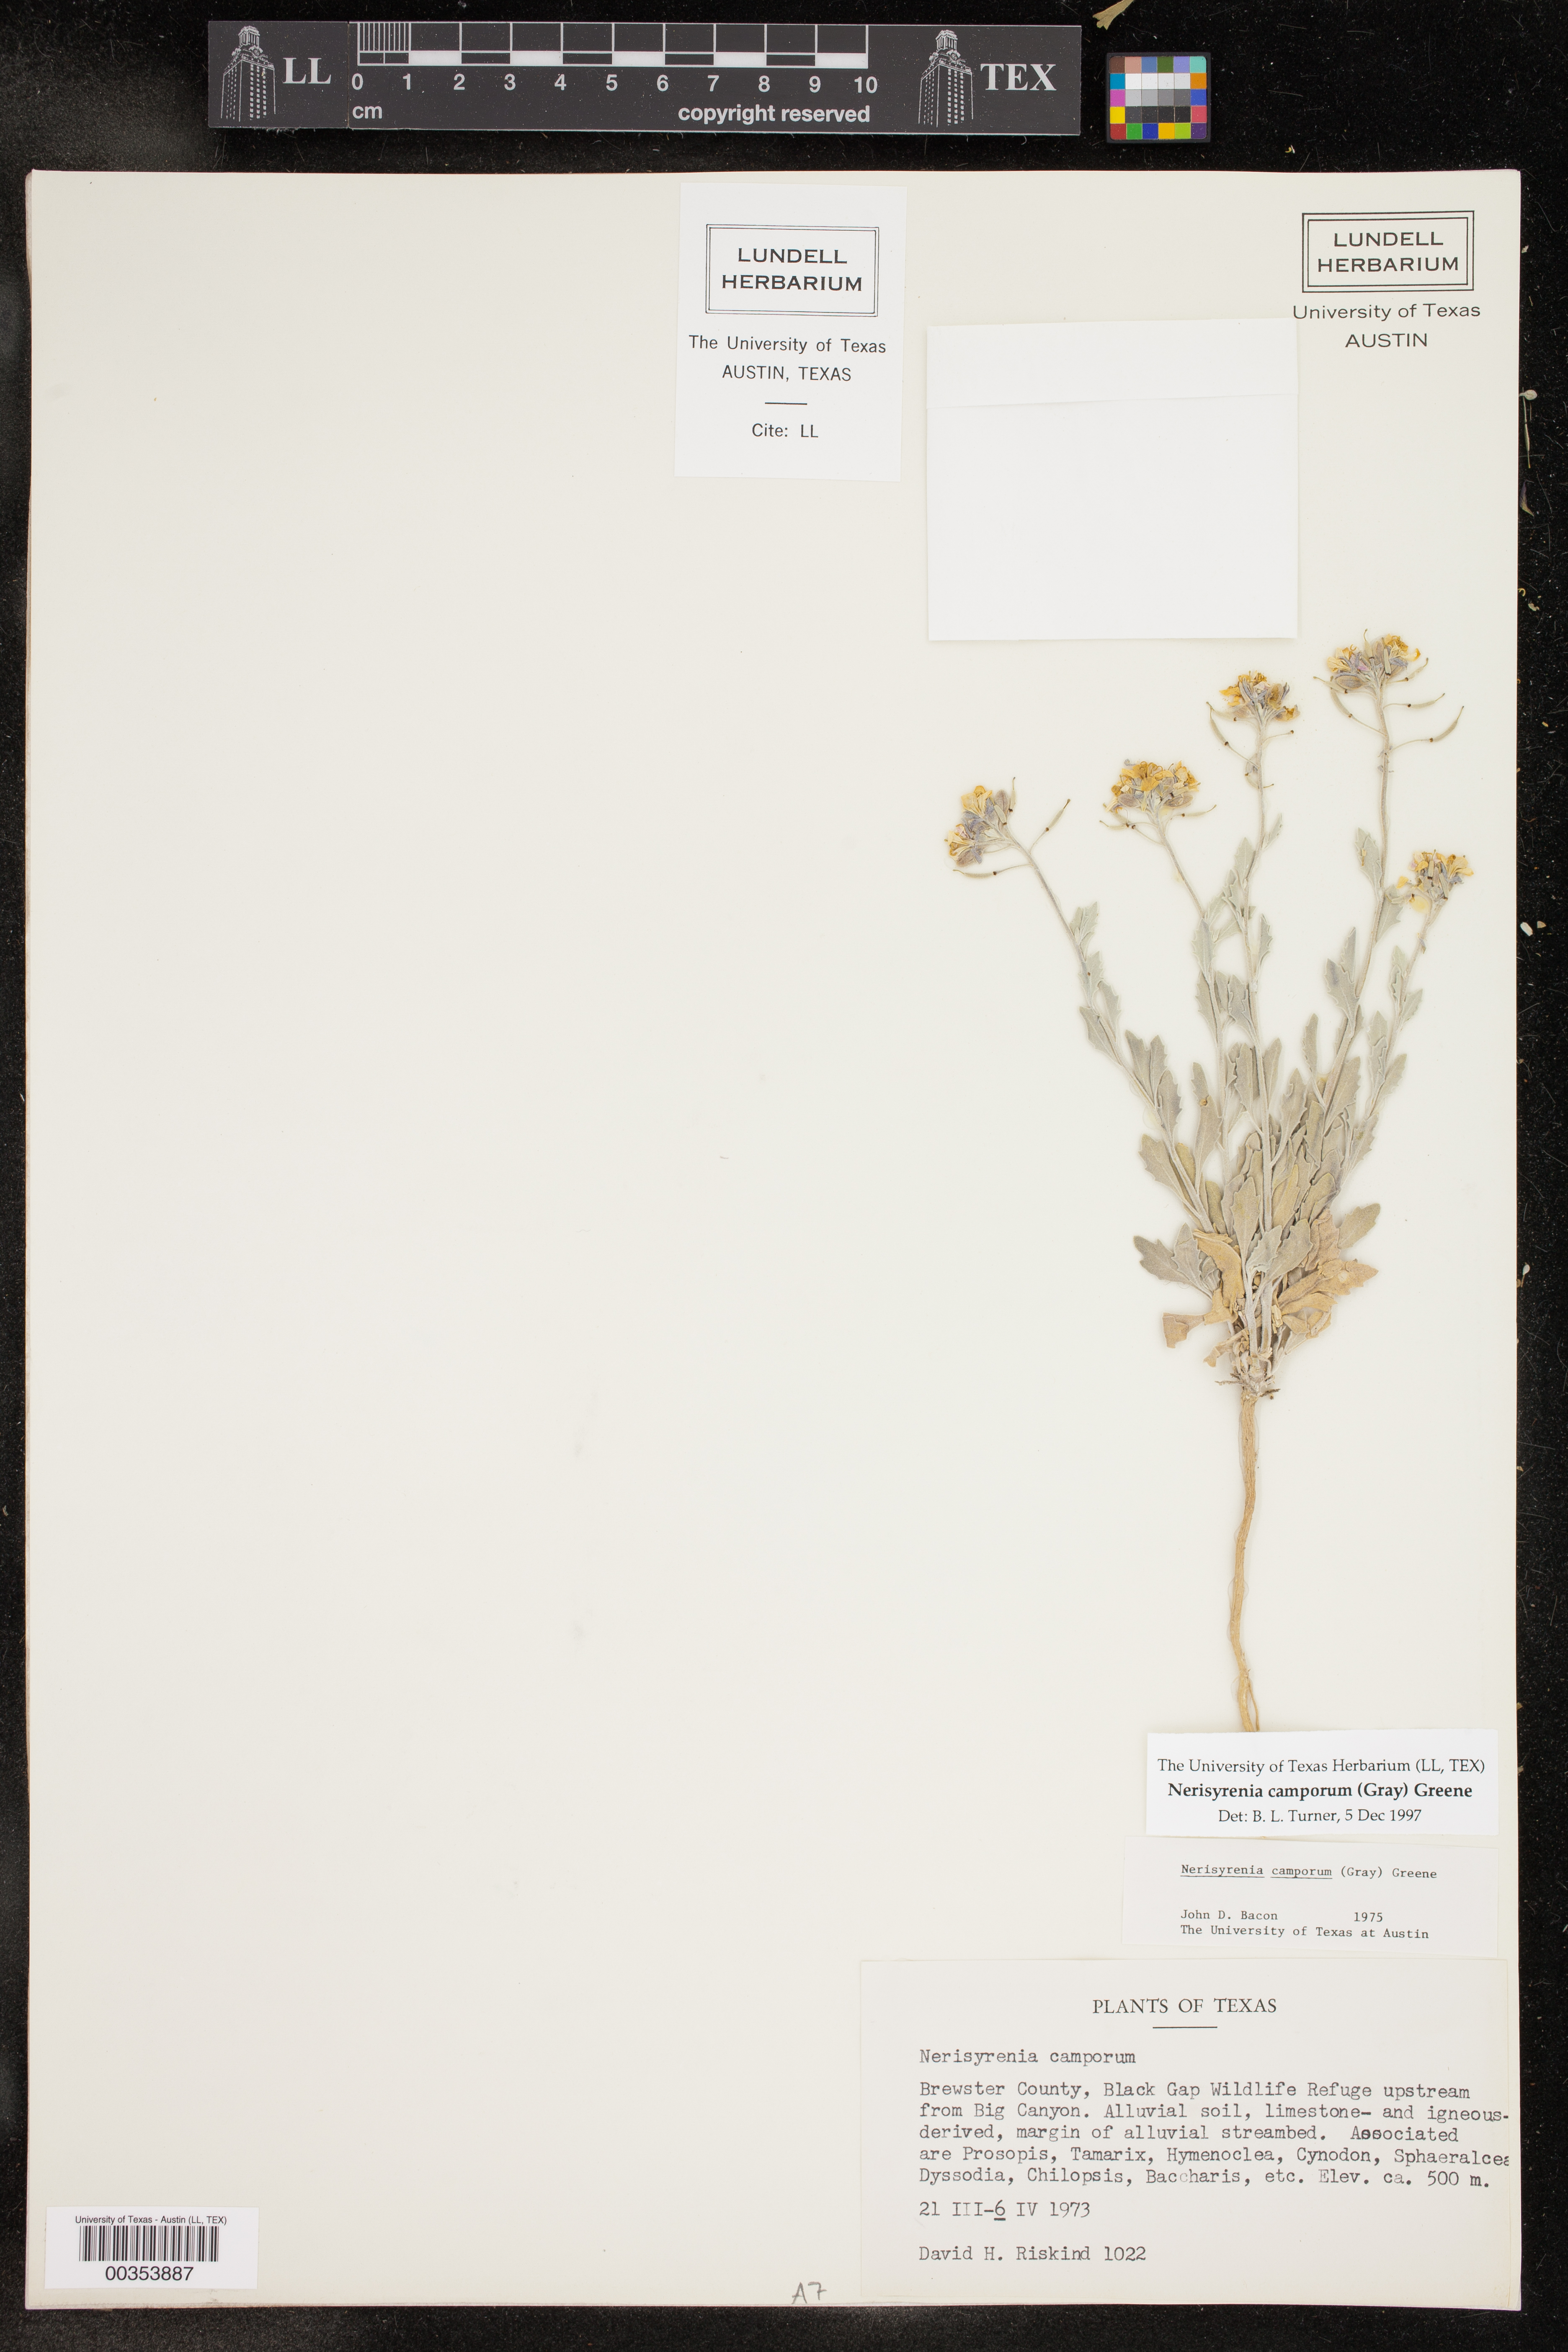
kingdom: Plantae
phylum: Tracheophyta
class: Magnoliopsida
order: Brassicales
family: Brassicaceae
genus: Nerisyrenia
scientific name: Nerisyrenia camporum
